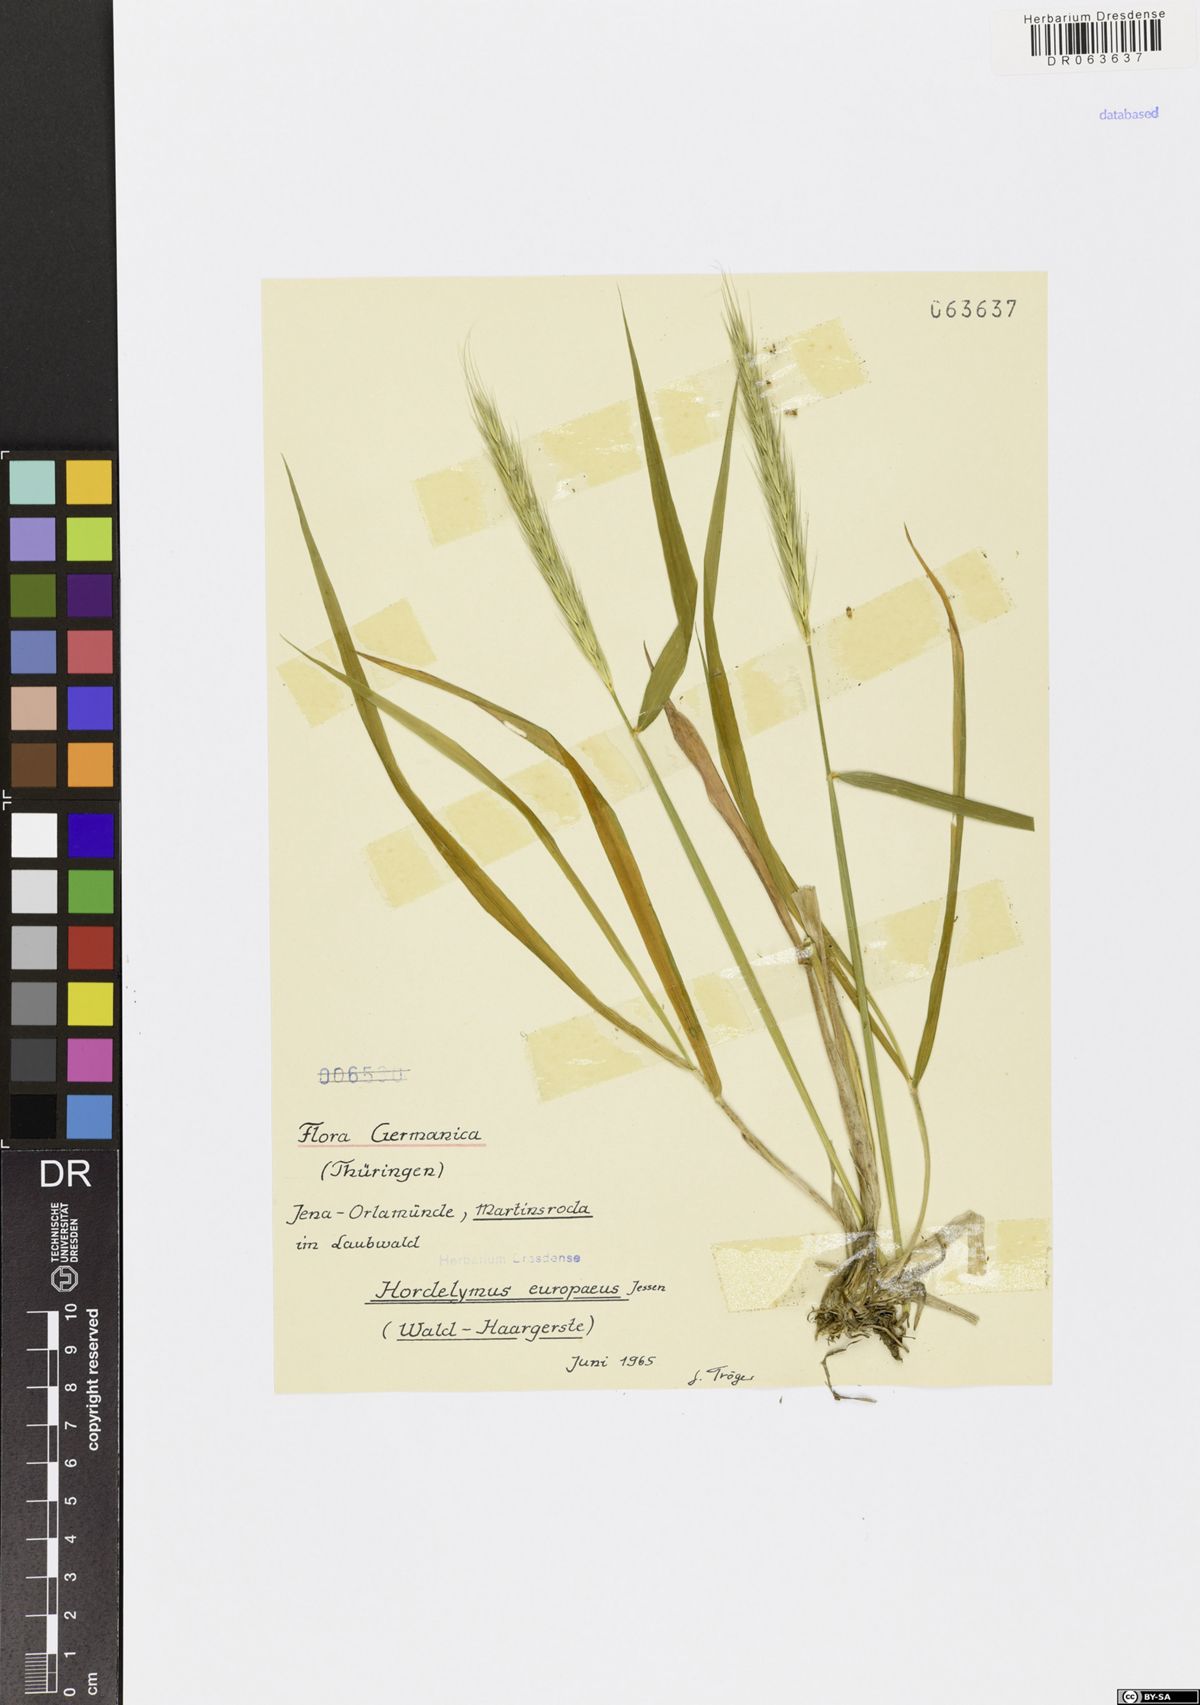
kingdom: Plantae
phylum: Tracheophyta
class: Liliopsida
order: Poales
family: Poaceae
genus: Hordelymus
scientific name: Hordelymus europaeus
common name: Wood-barley
